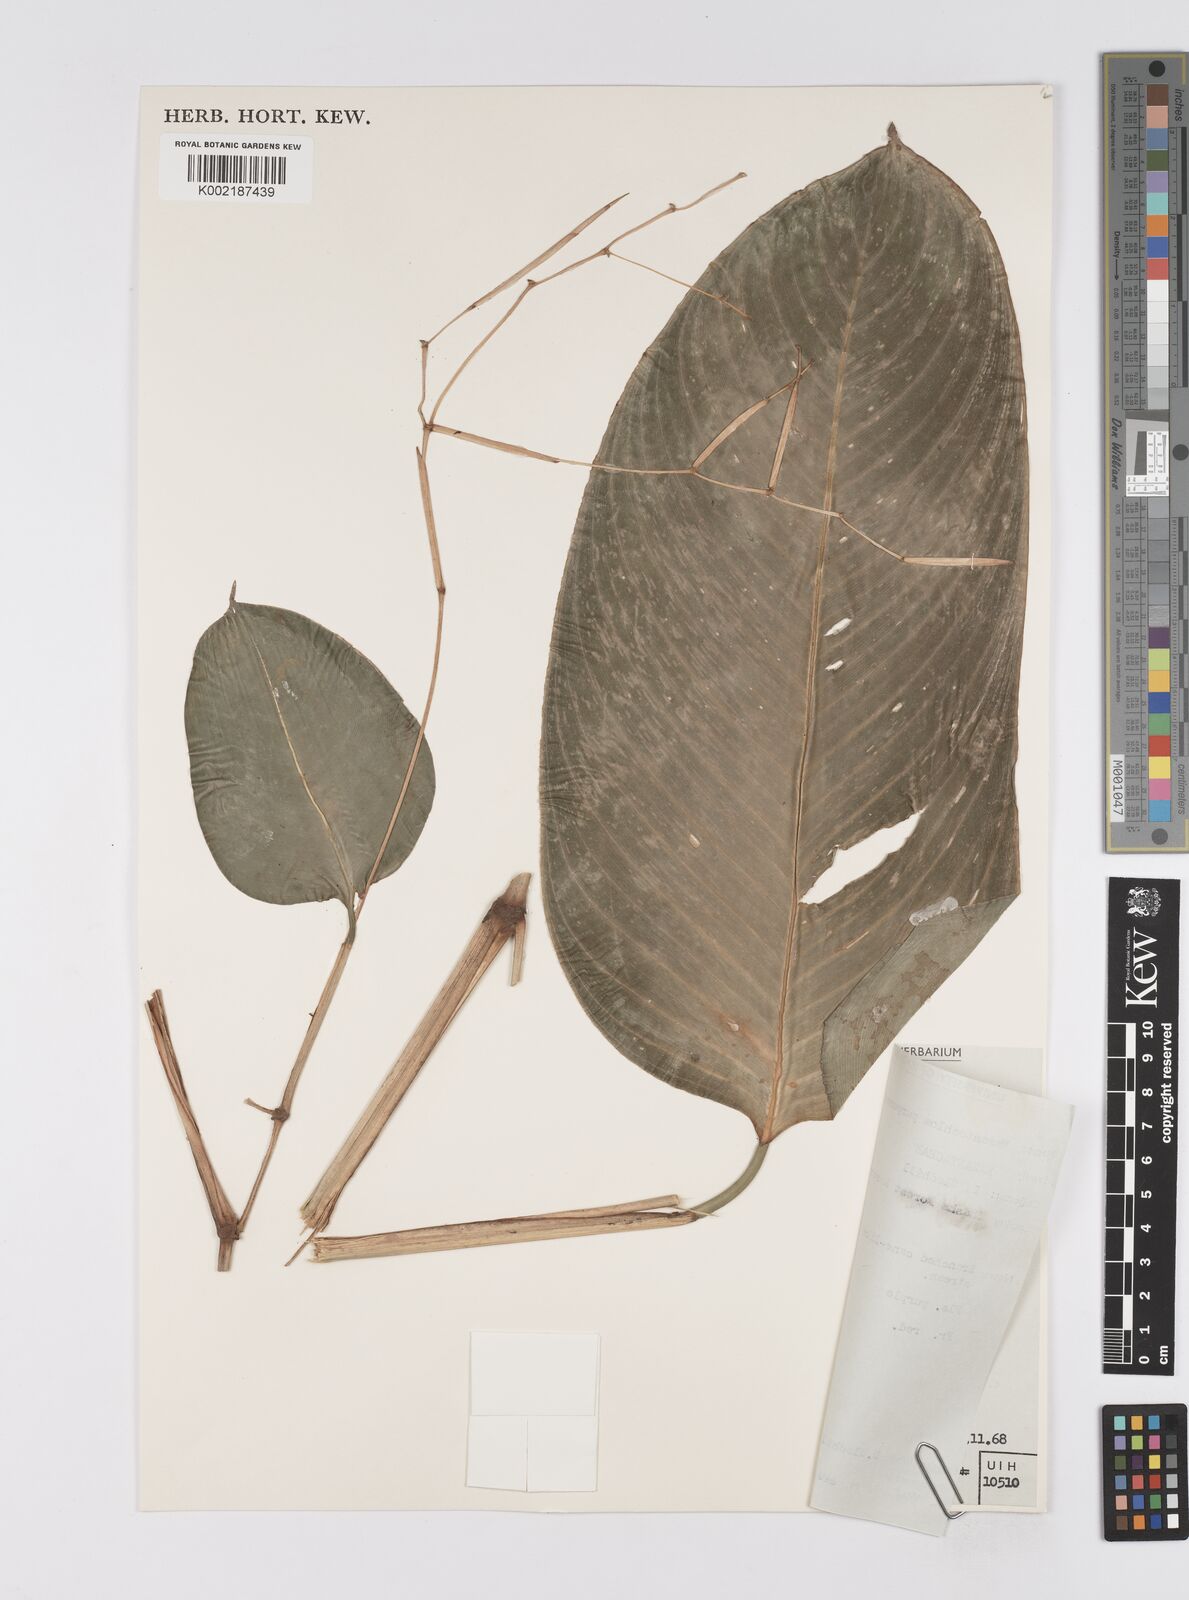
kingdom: Plantae
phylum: Tracheophyta
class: Liliopsida
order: Zingiberales
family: Marantaceae
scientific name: Marantaceae
